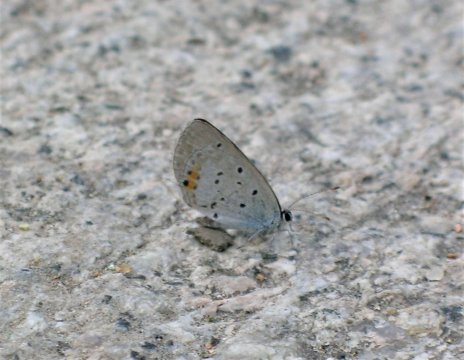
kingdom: Animalia
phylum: Arthropoda
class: Insecta
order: Lepidoptera
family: Lycaenidae
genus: Elkalyce
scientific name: Elkalyce decolorata
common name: Eastern Short-tailed Blue
